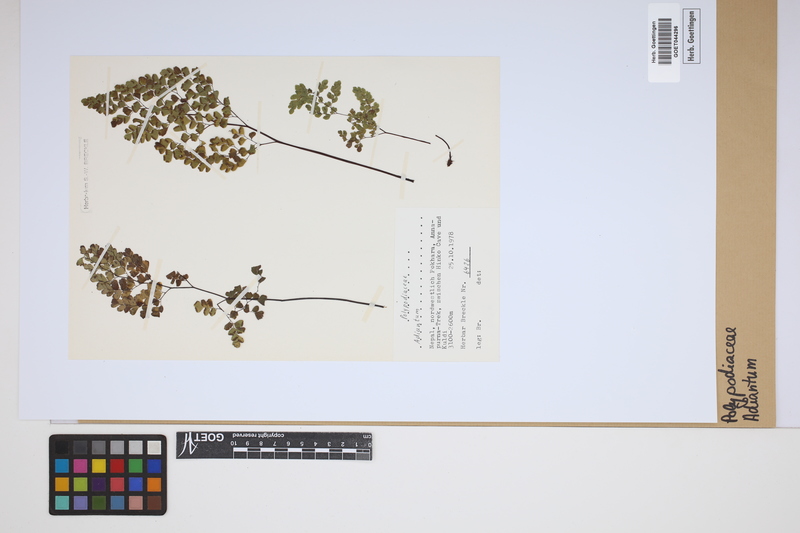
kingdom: Plantae
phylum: Tracheophyta
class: Polypodiopsida
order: Polypodiales
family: Pteridaceae
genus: Adiantum
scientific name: Adiantum
